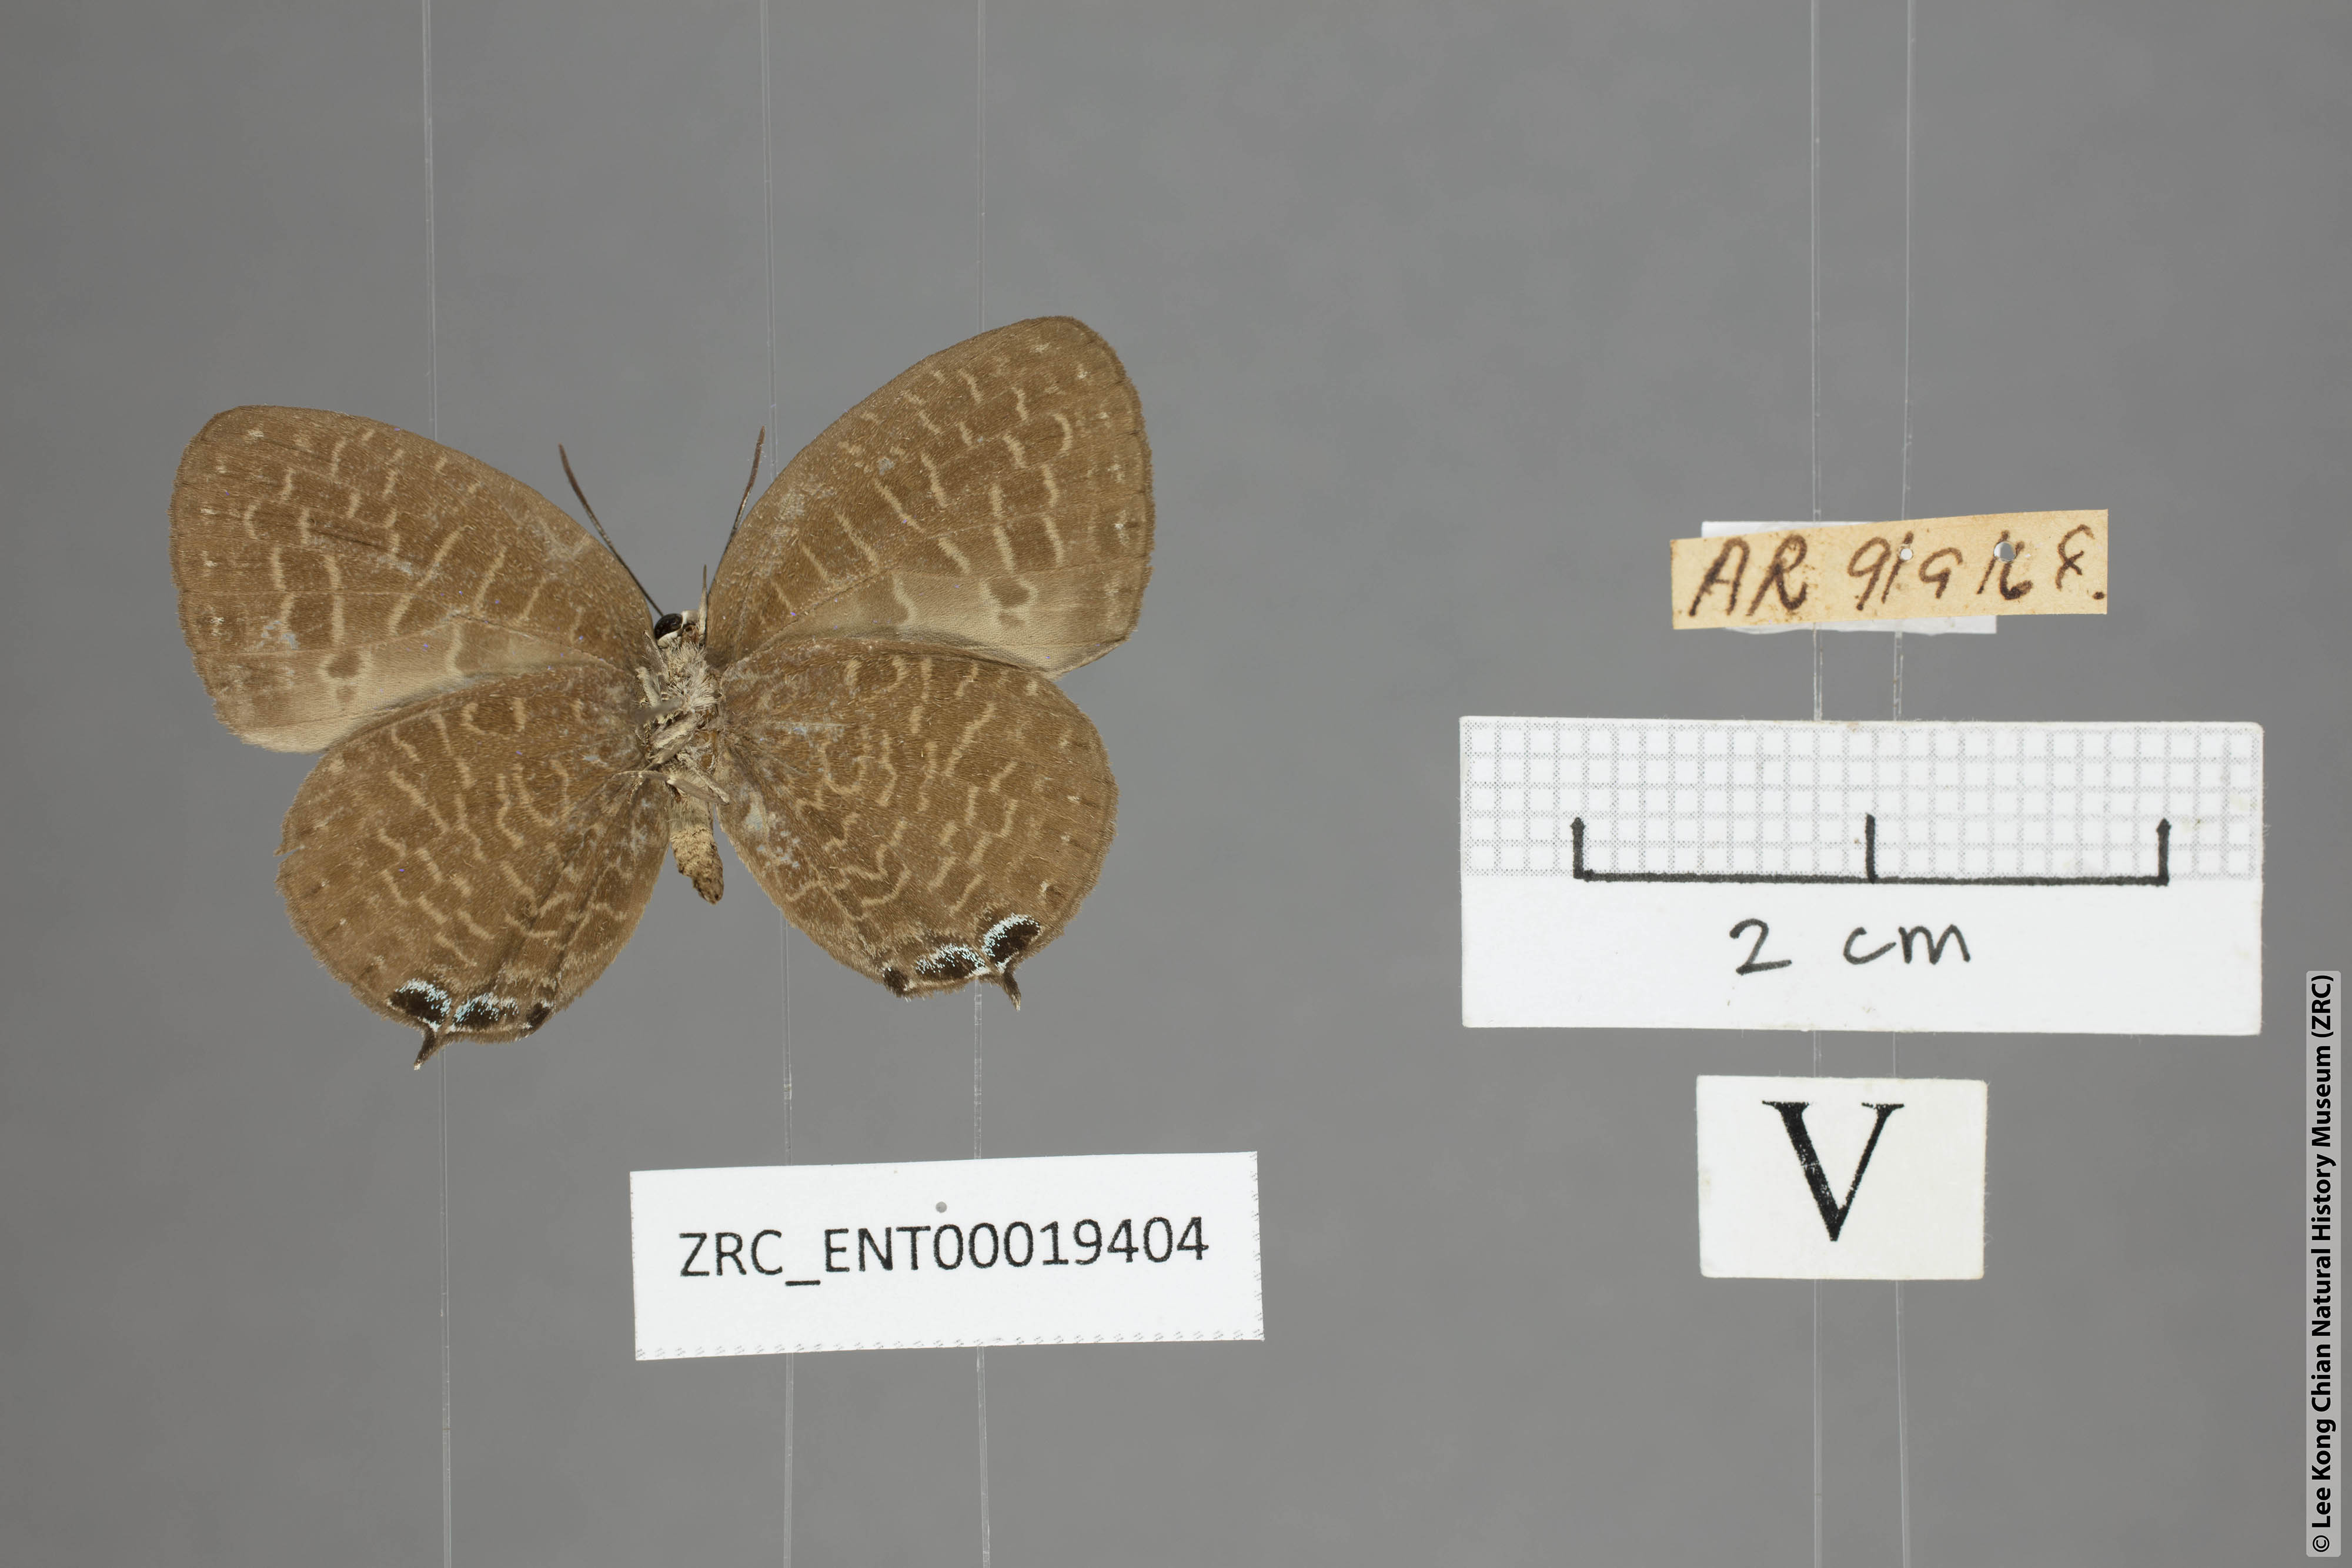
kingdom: Animalia
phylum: Arthropoda
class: Insecta
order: Lepidoptera
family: Lycaenidae
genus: Arhopala
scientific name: Arhopala democritus
